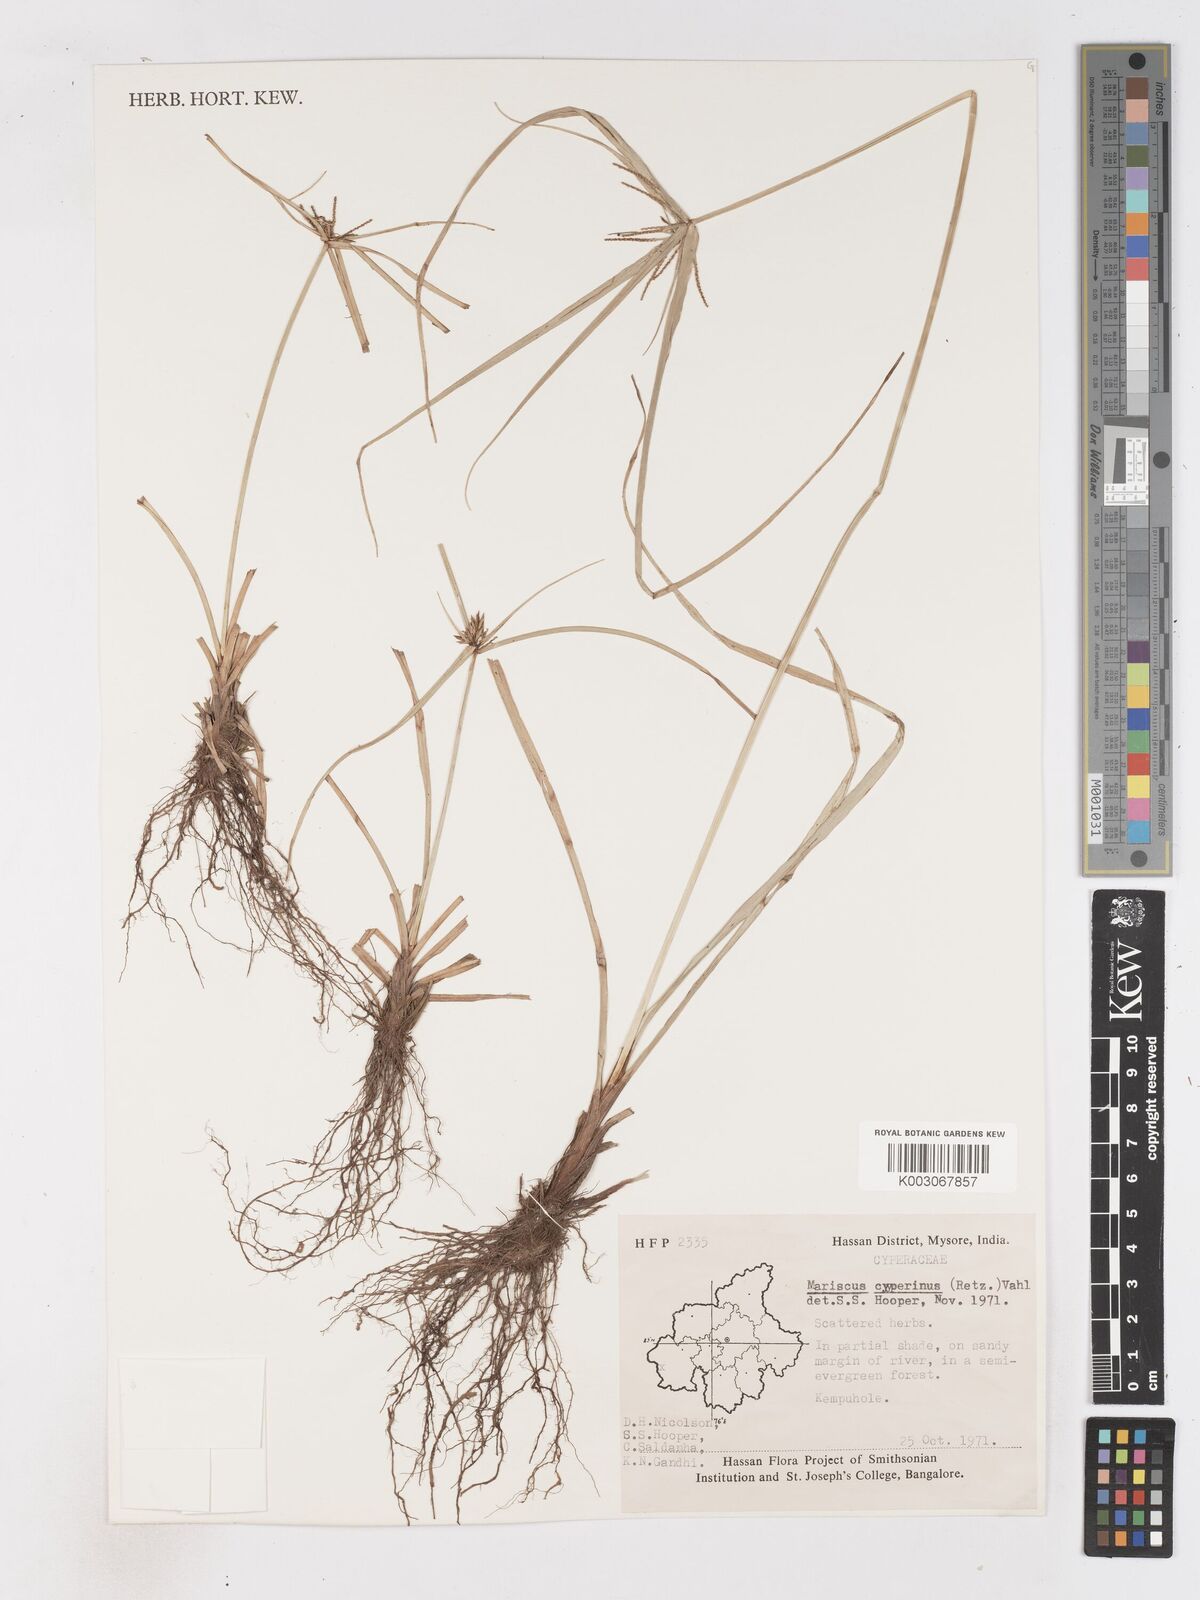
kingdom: Plantae
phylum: Tracheophyta
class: Liliopsida
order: Poales
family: Cyperaceae
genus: Cyperus
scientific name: Cyperus cyperinus
